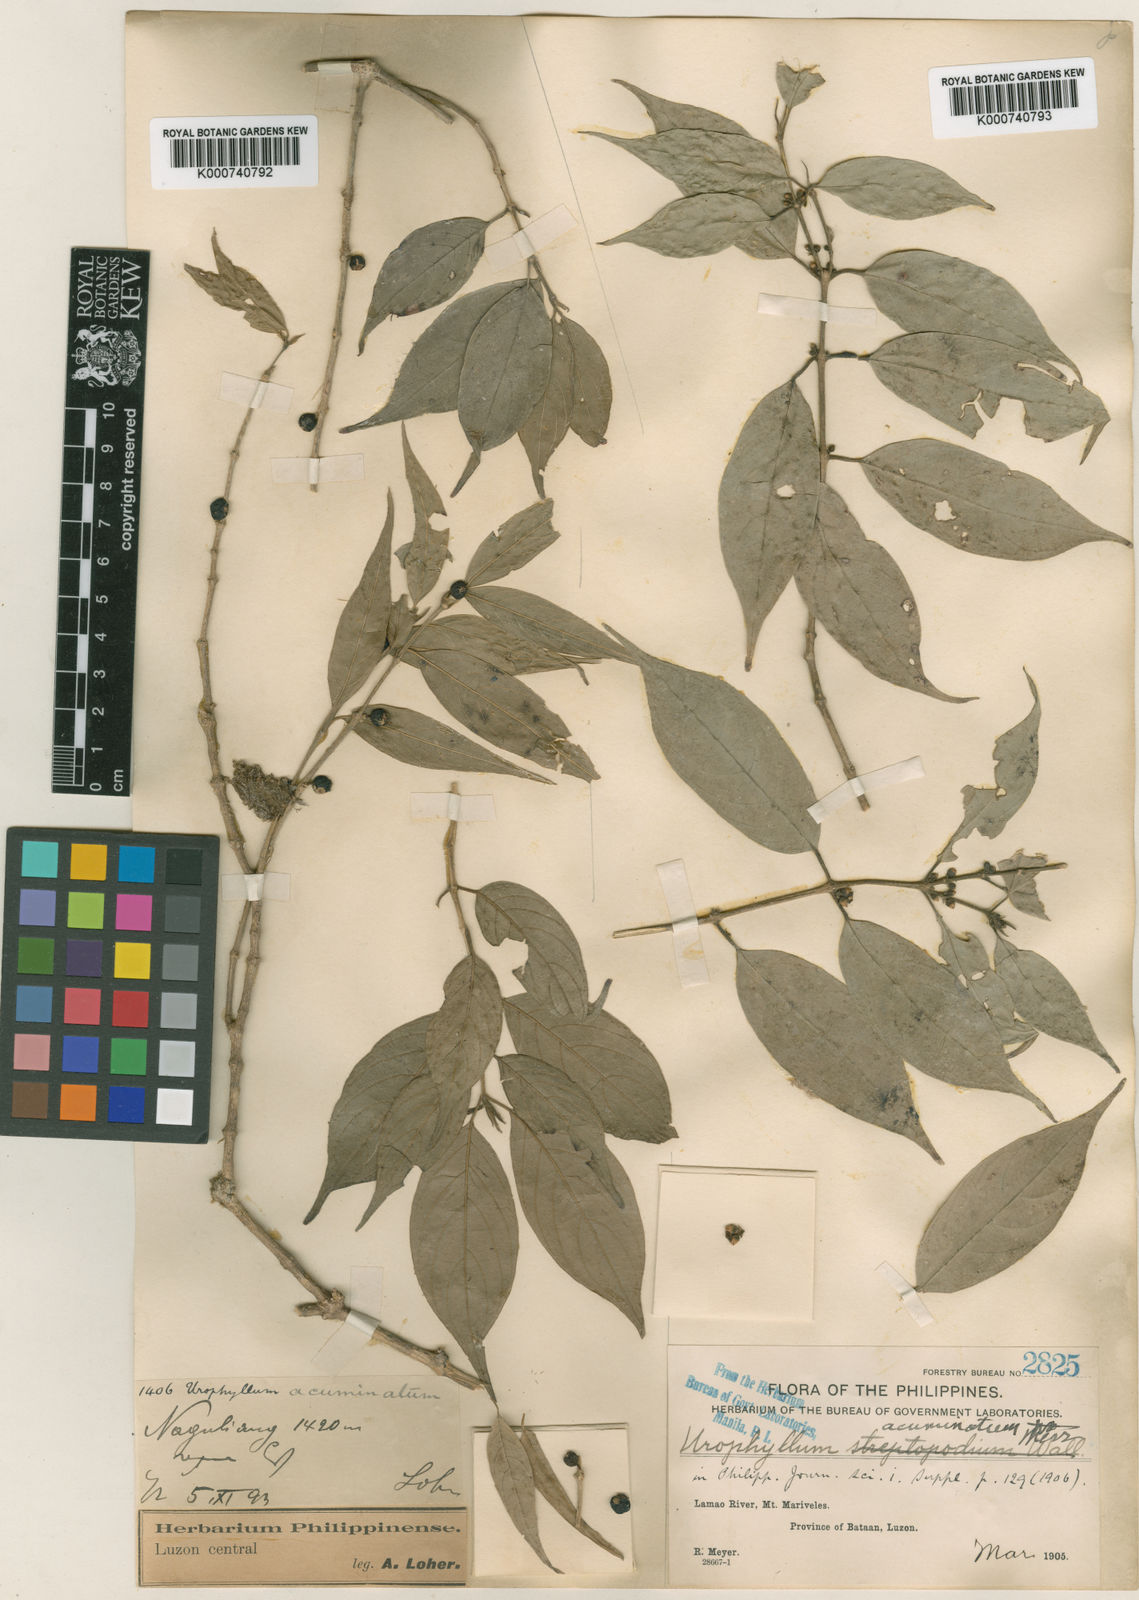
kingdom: Plantae
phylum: Tracheophyta
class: Magnoliopsida
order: Gentianales
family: Rubiaceae
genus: Praravinia
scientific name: Praravinia acuminata
